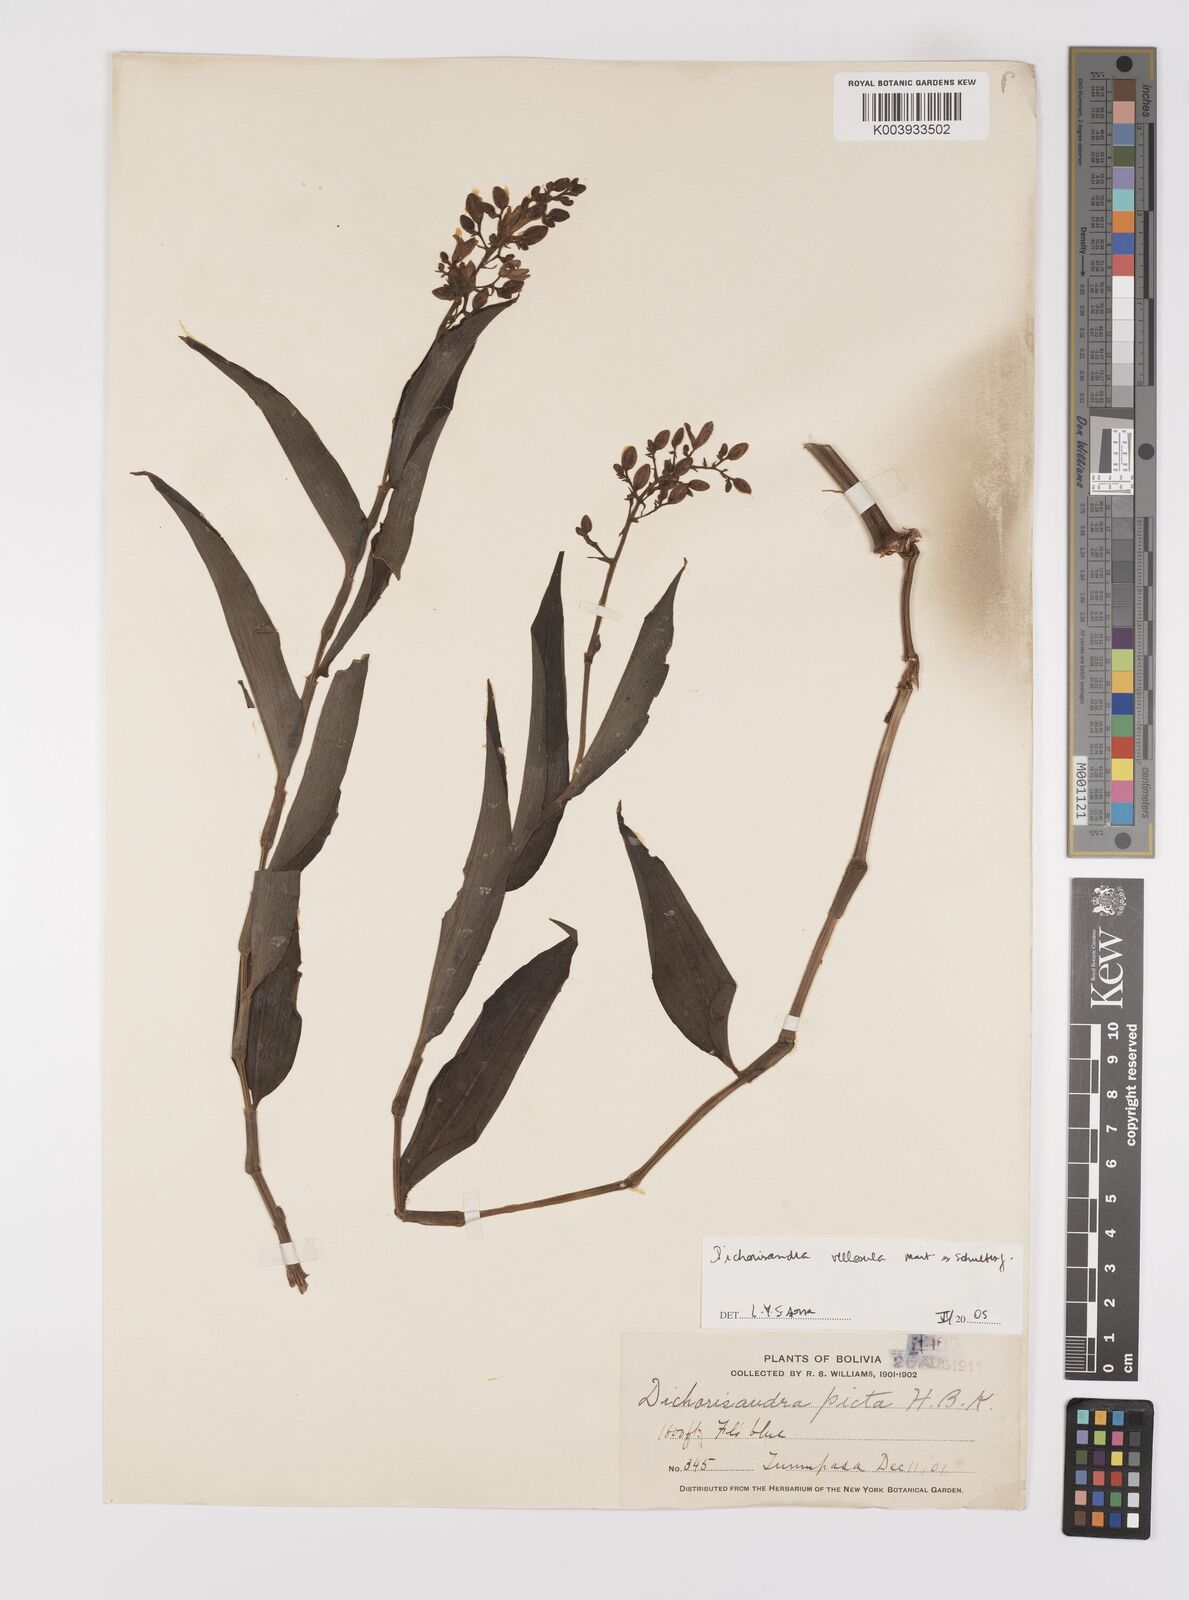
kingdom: Plantae
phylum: Tracheophyta
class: Liliopsida
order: Commelinales
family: Commelinaceae
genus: Dichorisandra
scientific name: Dichorisandra villosula
